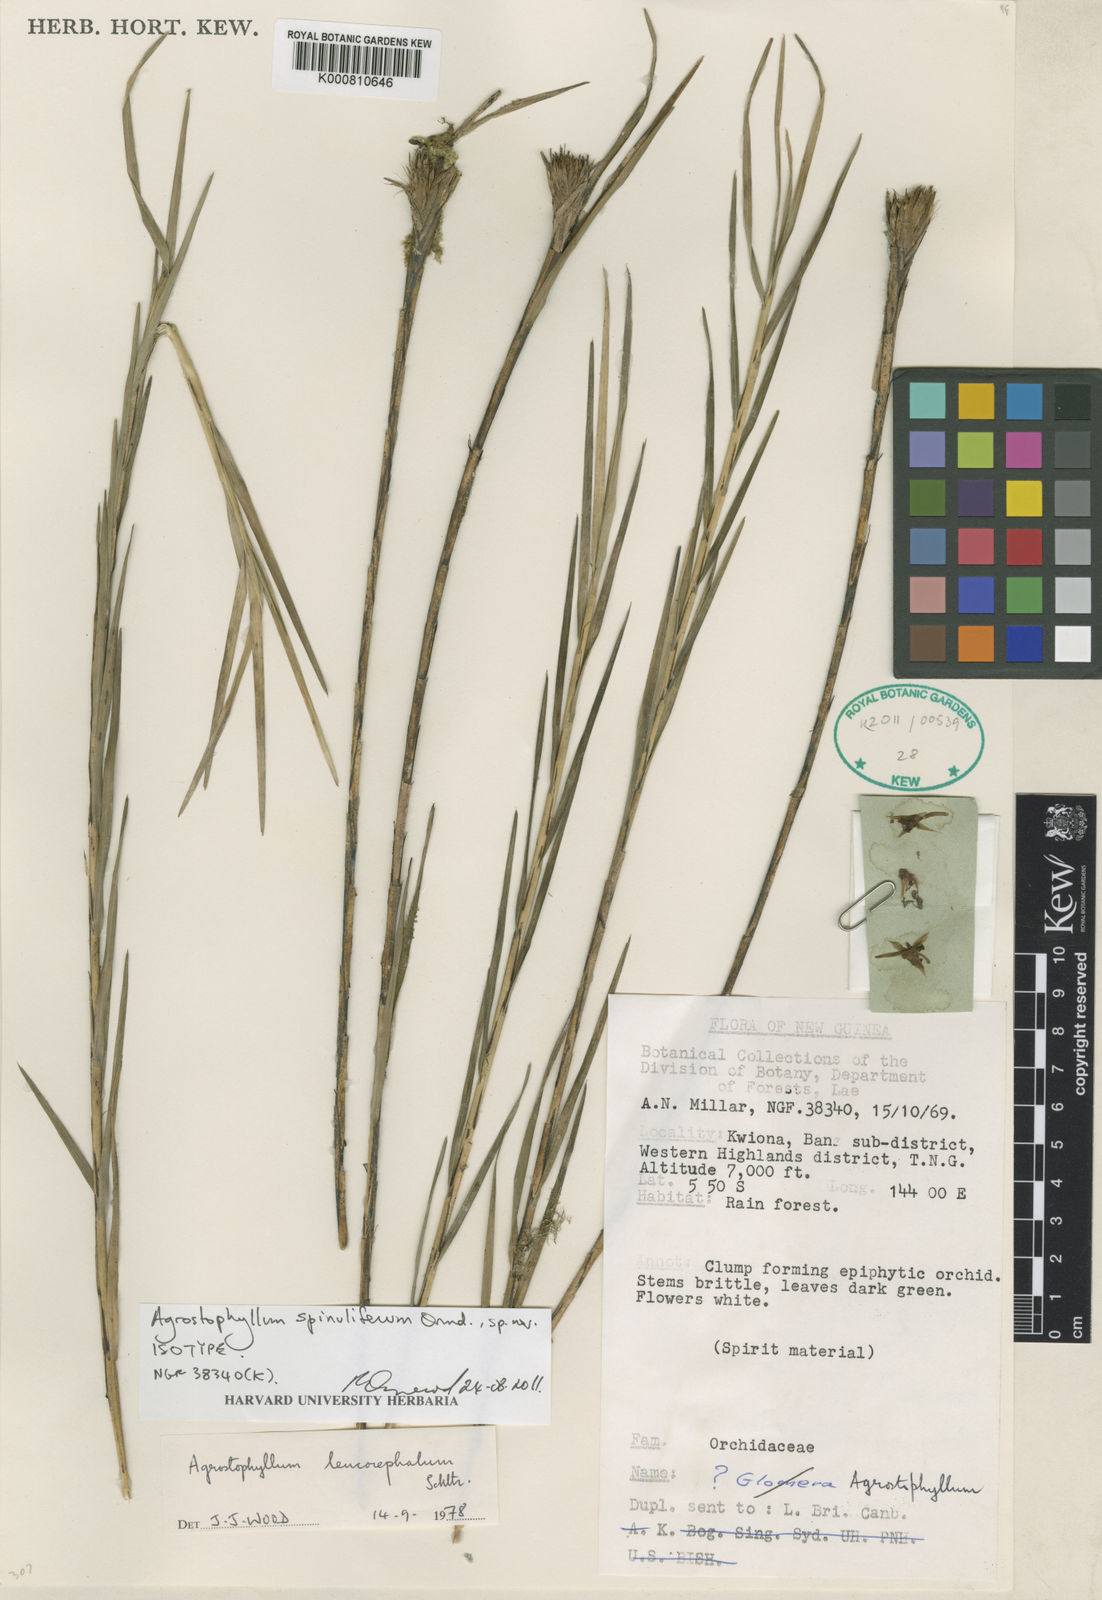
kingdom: Plantae
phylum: Tracheophyta
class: Liliopsida
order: Asparagales
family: Orchidaceae
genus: Agrostophyllum
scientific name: Agrostophyllum spinuliferum
